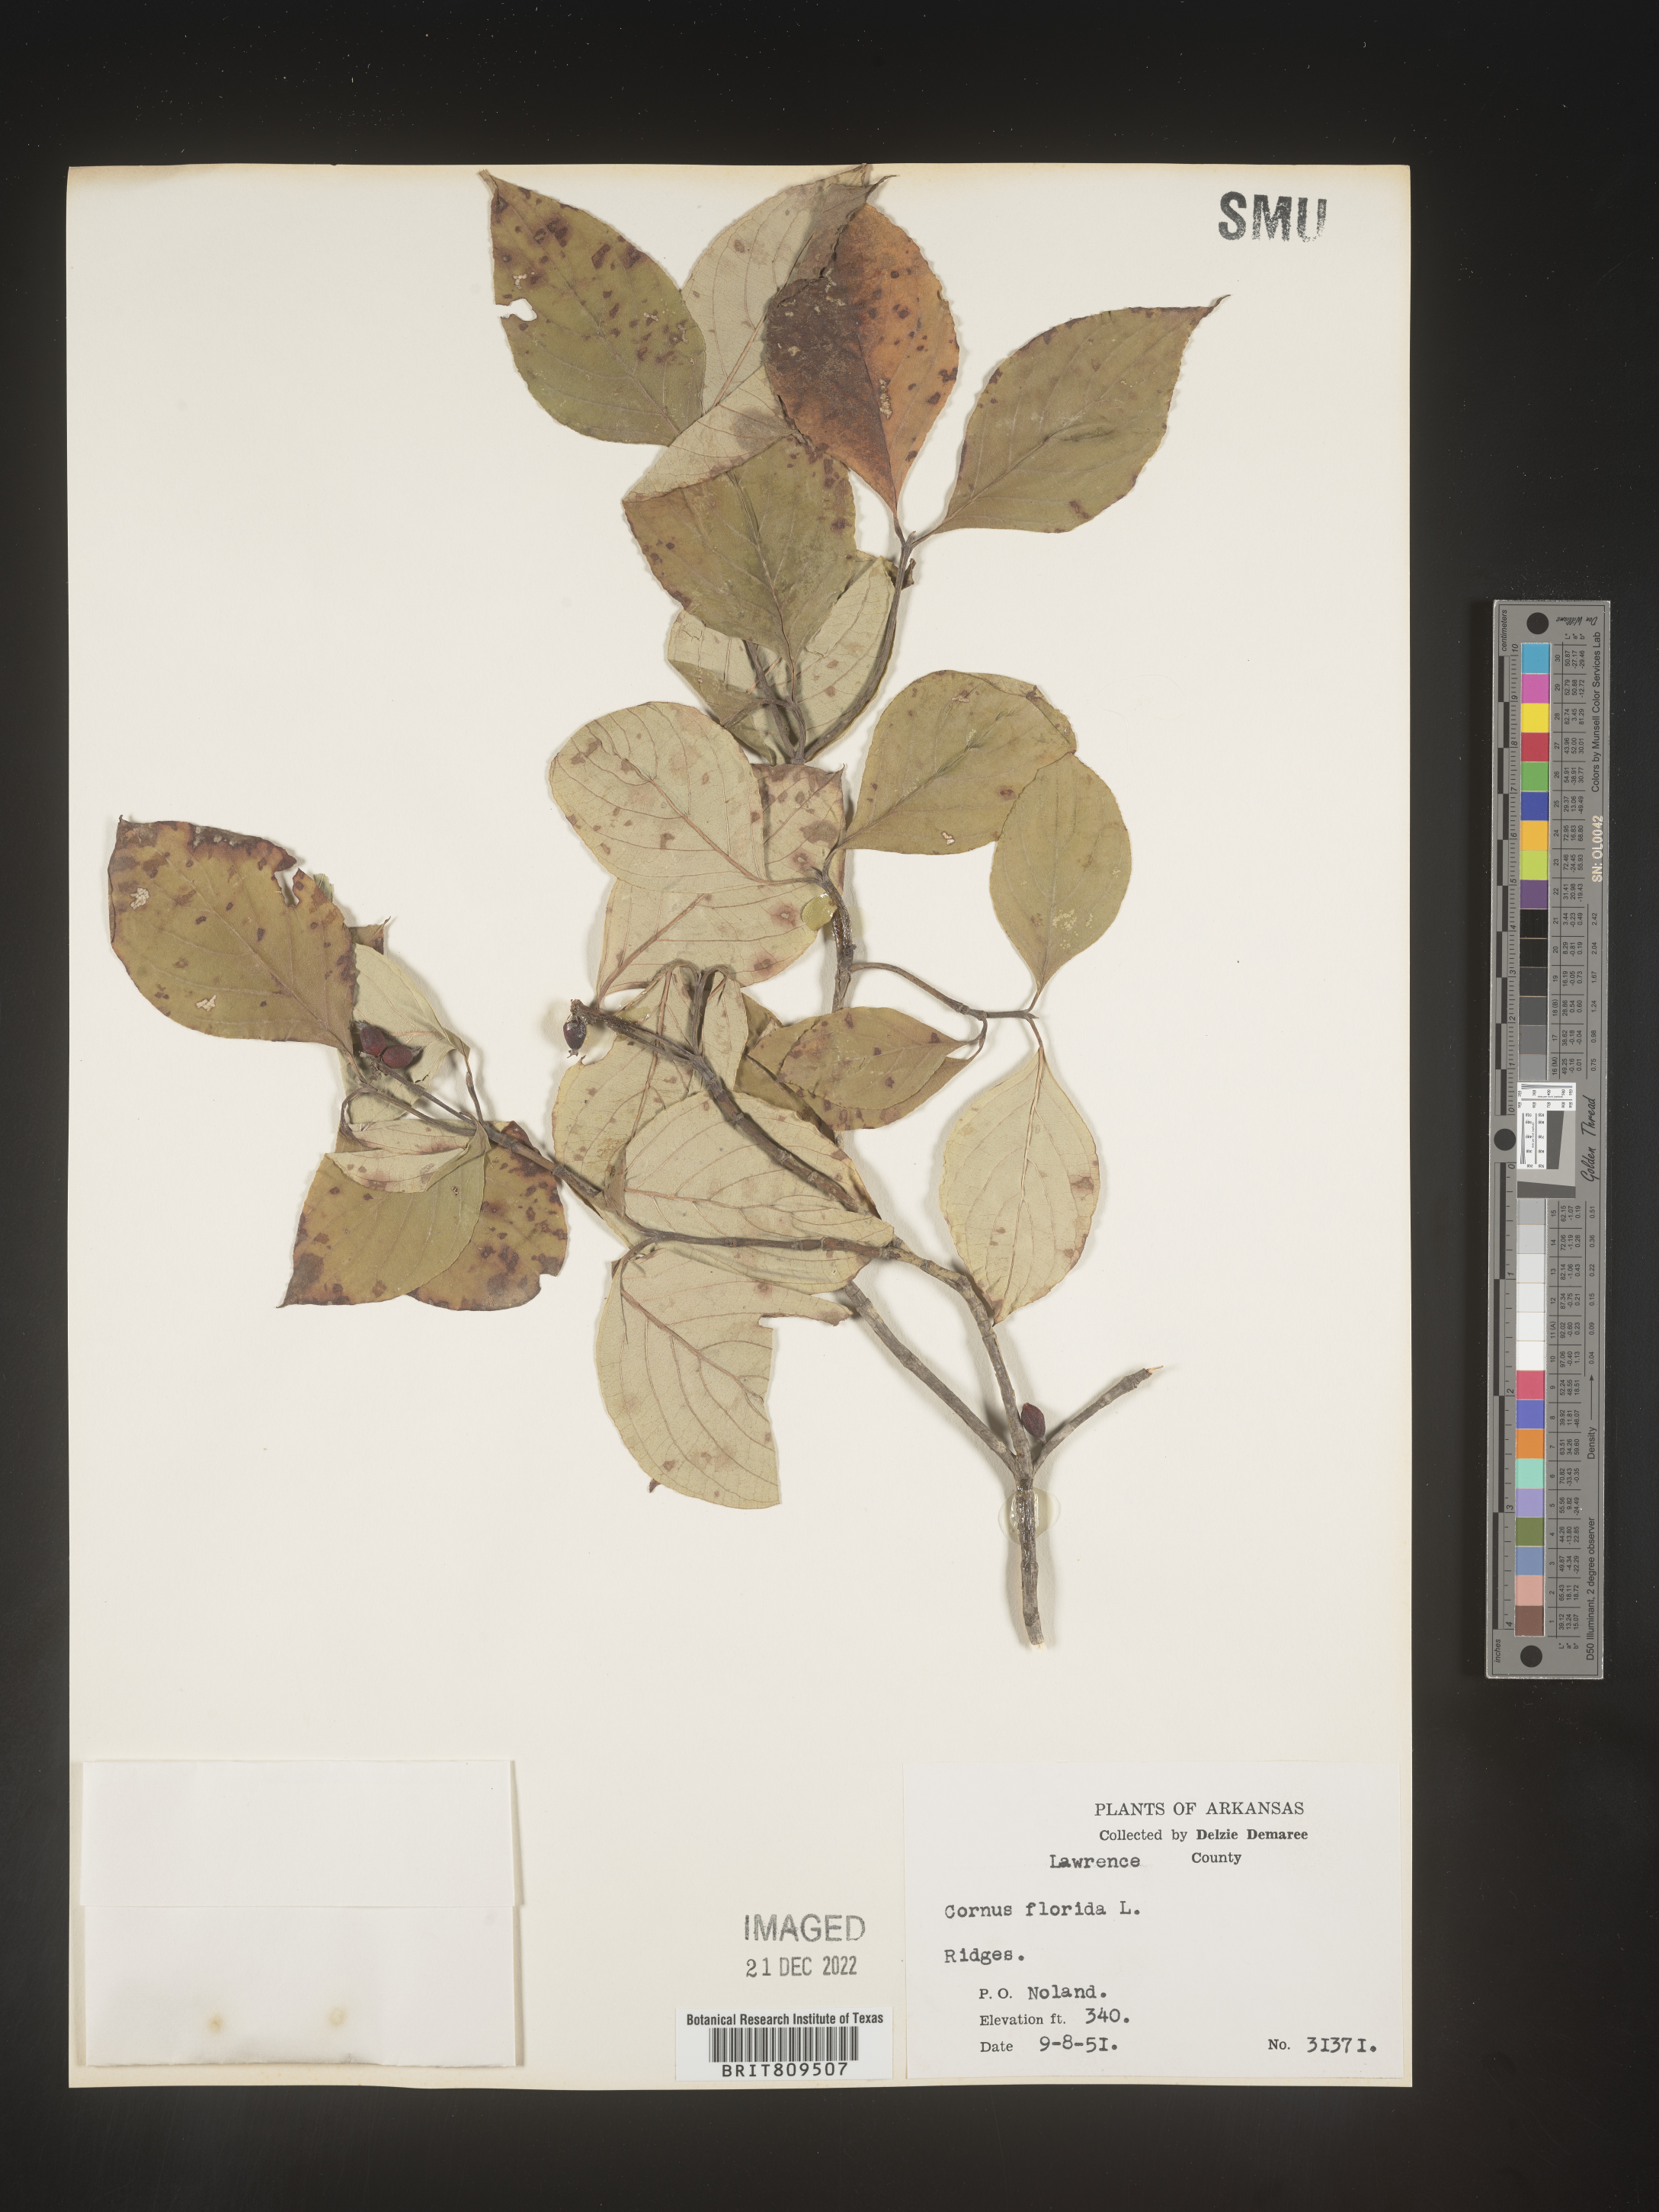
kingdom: Plantae
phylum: Tracheophyta
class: Magnoliopsida
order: Cornales
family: Cornaceae
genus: Cornus
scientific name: Cornus florida
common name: Flowering dogwood
